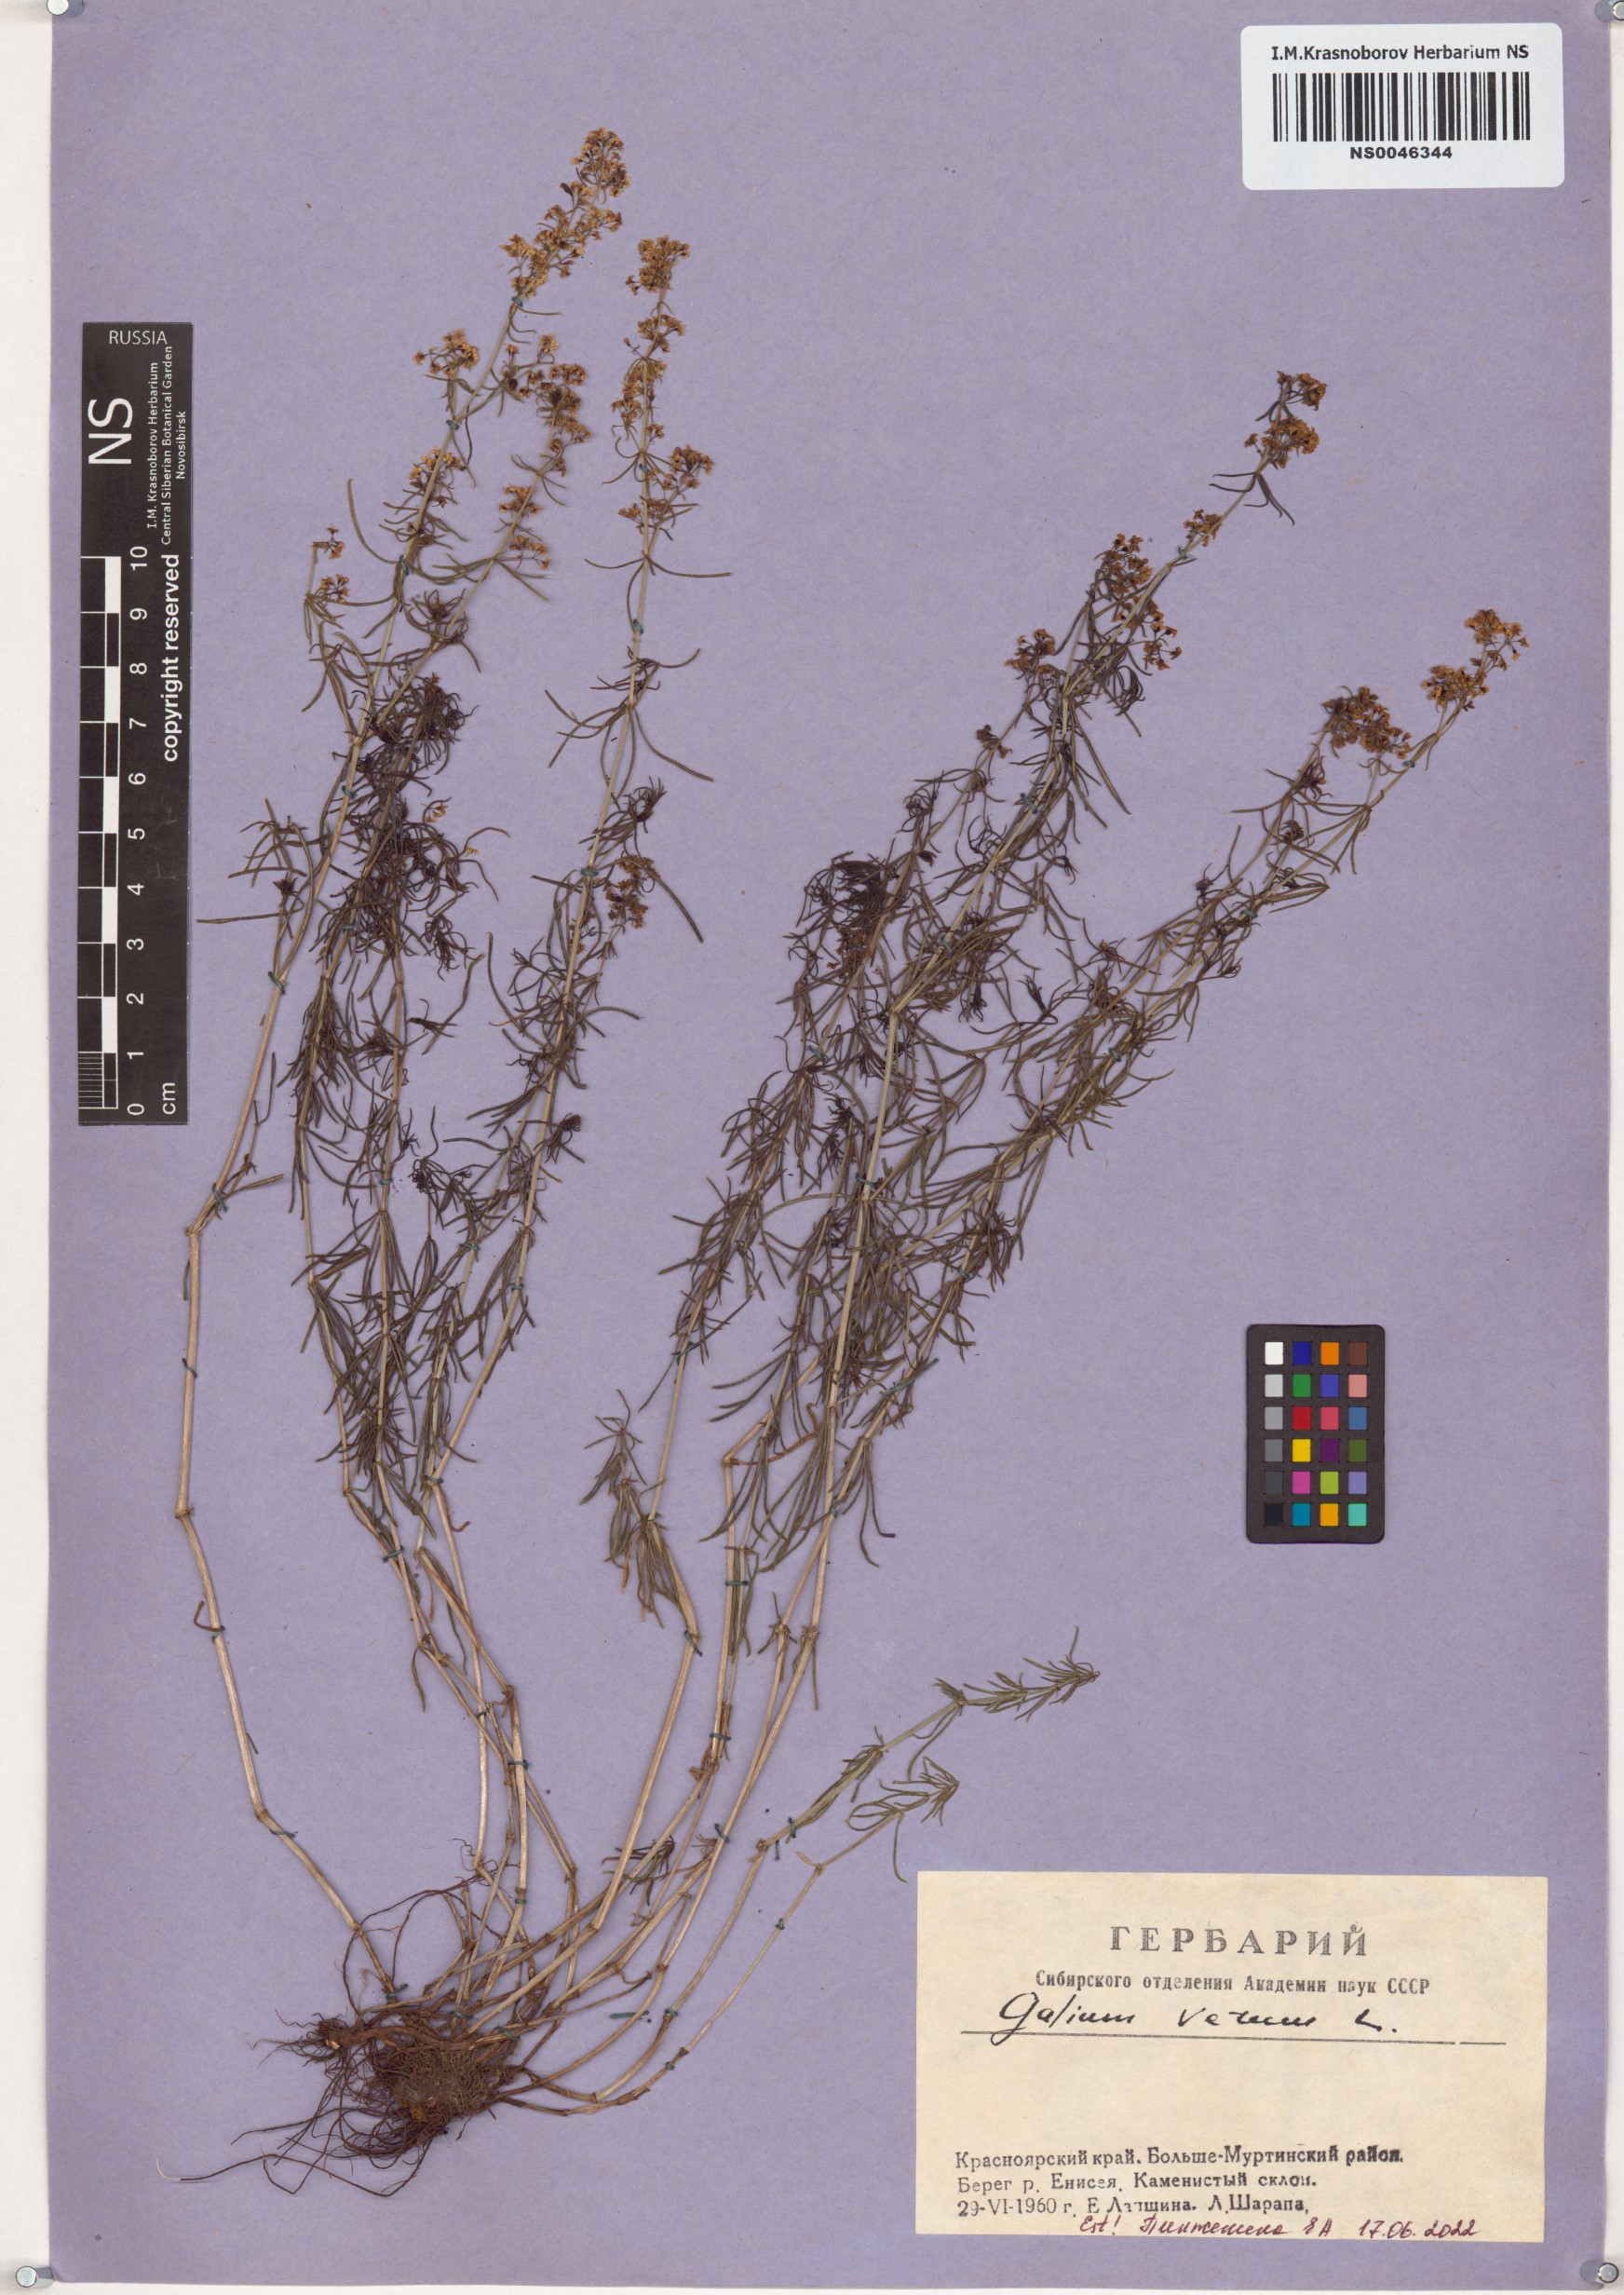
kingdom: Plantae
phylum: Tracheophyta
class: Magnoliopsida
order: Gentianales
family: Rubiaceae
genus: Galium
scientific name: Galium verum
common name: Lady's bedstraw
